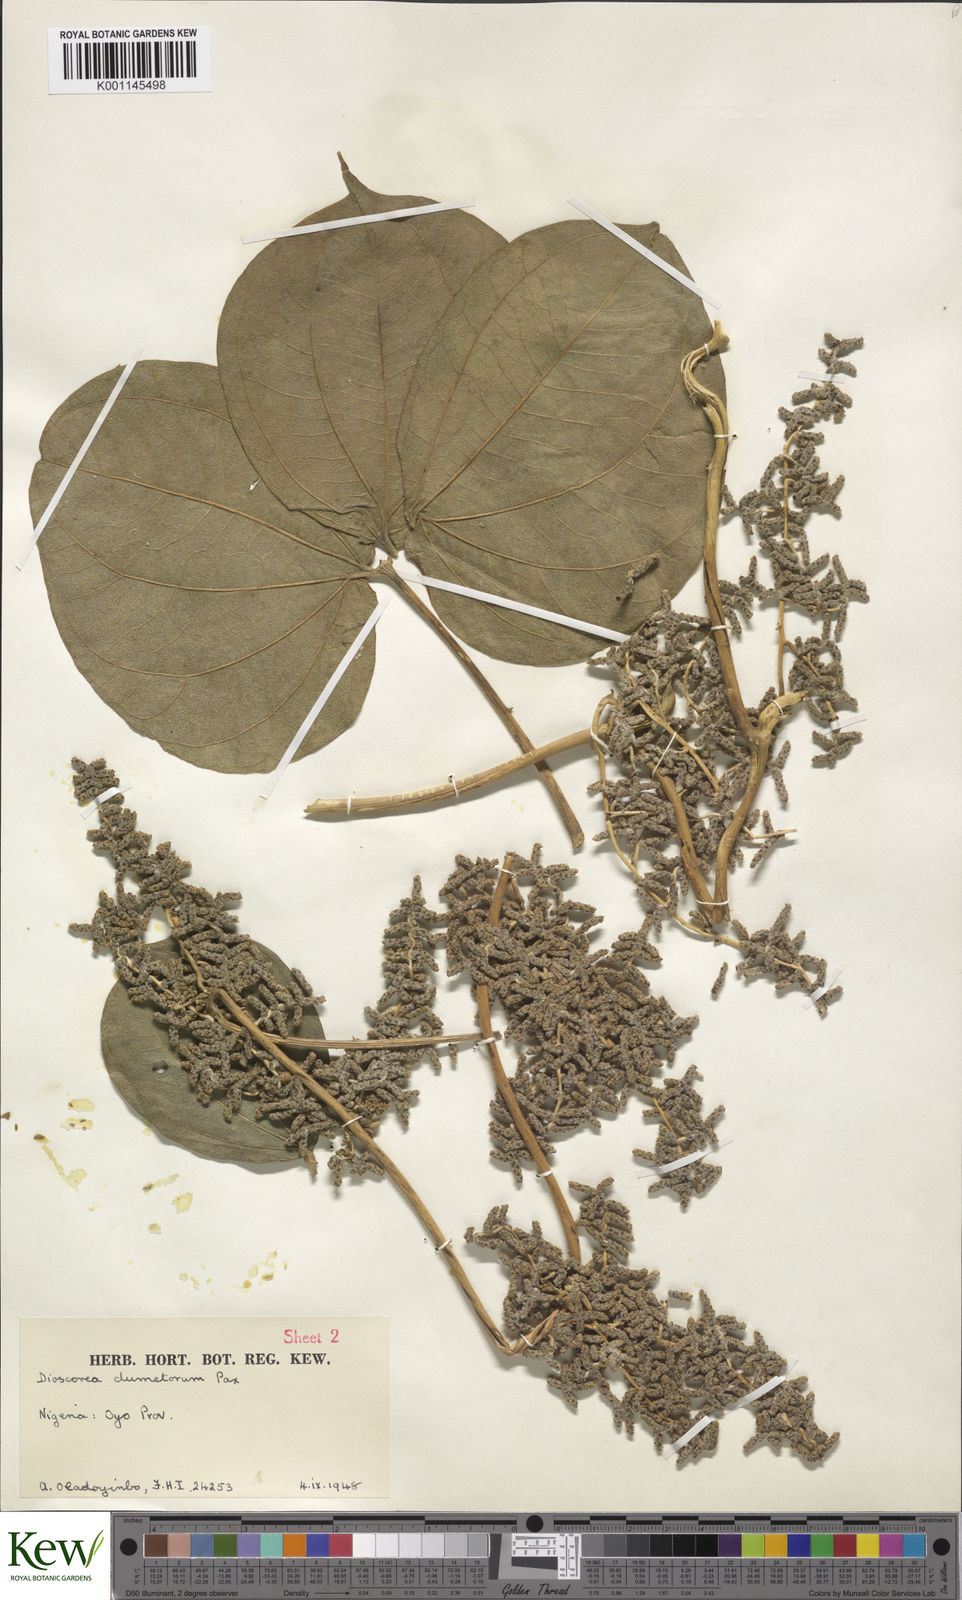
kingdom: Plantae
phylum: Tracheophyta
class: Liliopsida
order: Dioscoreales
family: Dioscoreaceae
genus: Dioscorea
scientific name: Dioscorea dumetorum
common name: African bitter yam
